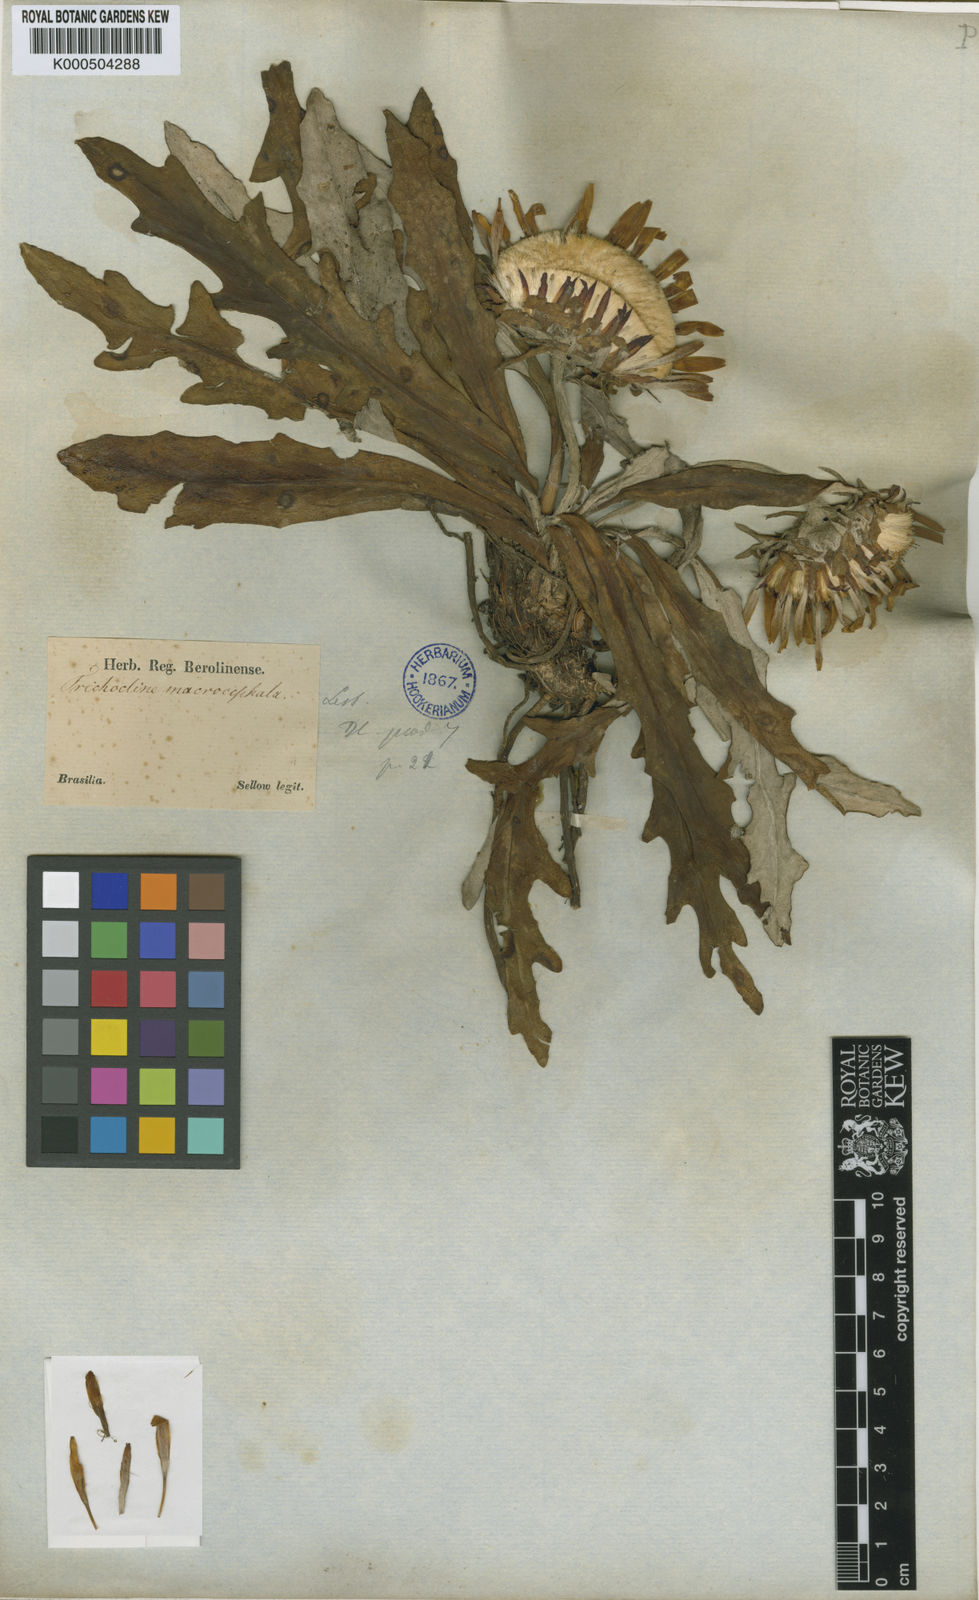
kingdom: Plantae
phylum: Tracheophyta
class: Magnoliopsida
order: Asterales
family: Asteraceae
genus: Trichocline
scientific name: Trichocline macrocephala
